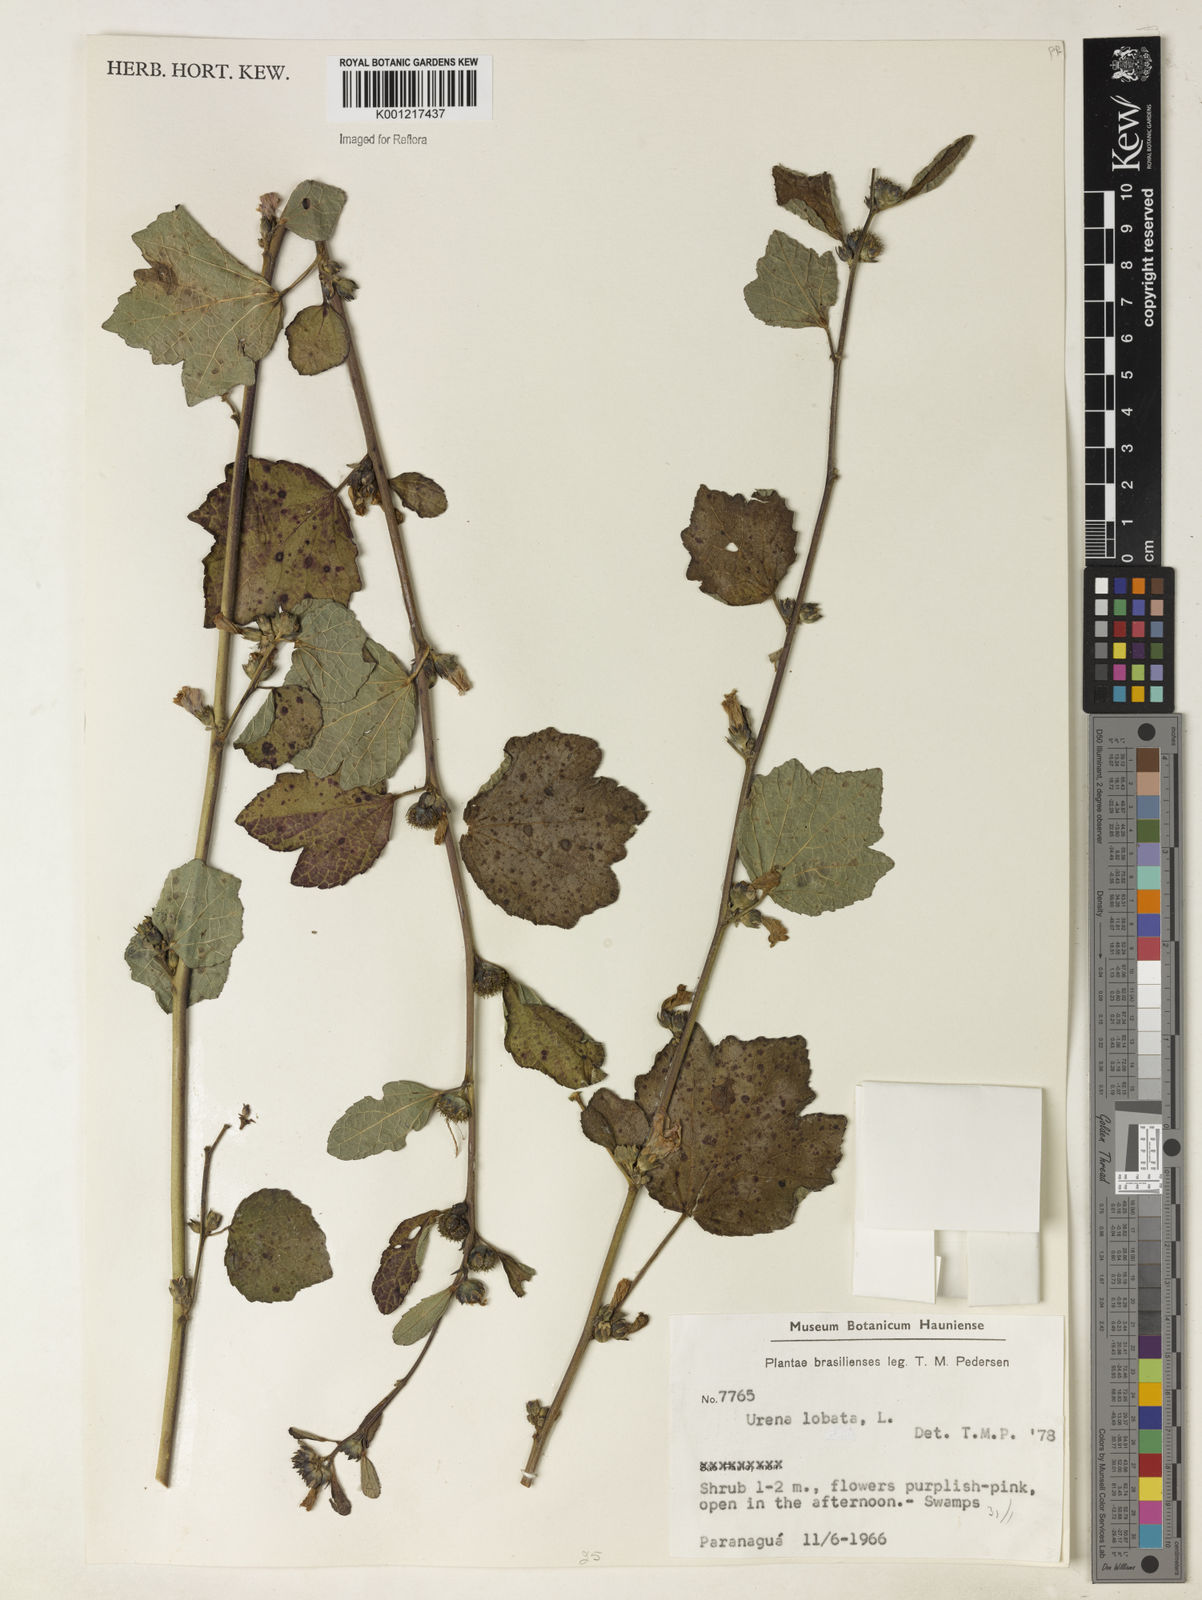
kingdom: Plantae
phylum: Tracheophyta
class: Magnoliopsida
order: Malvales
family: Malvaceae
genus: Urena
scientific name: Urena lobata
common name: Caesarweed
